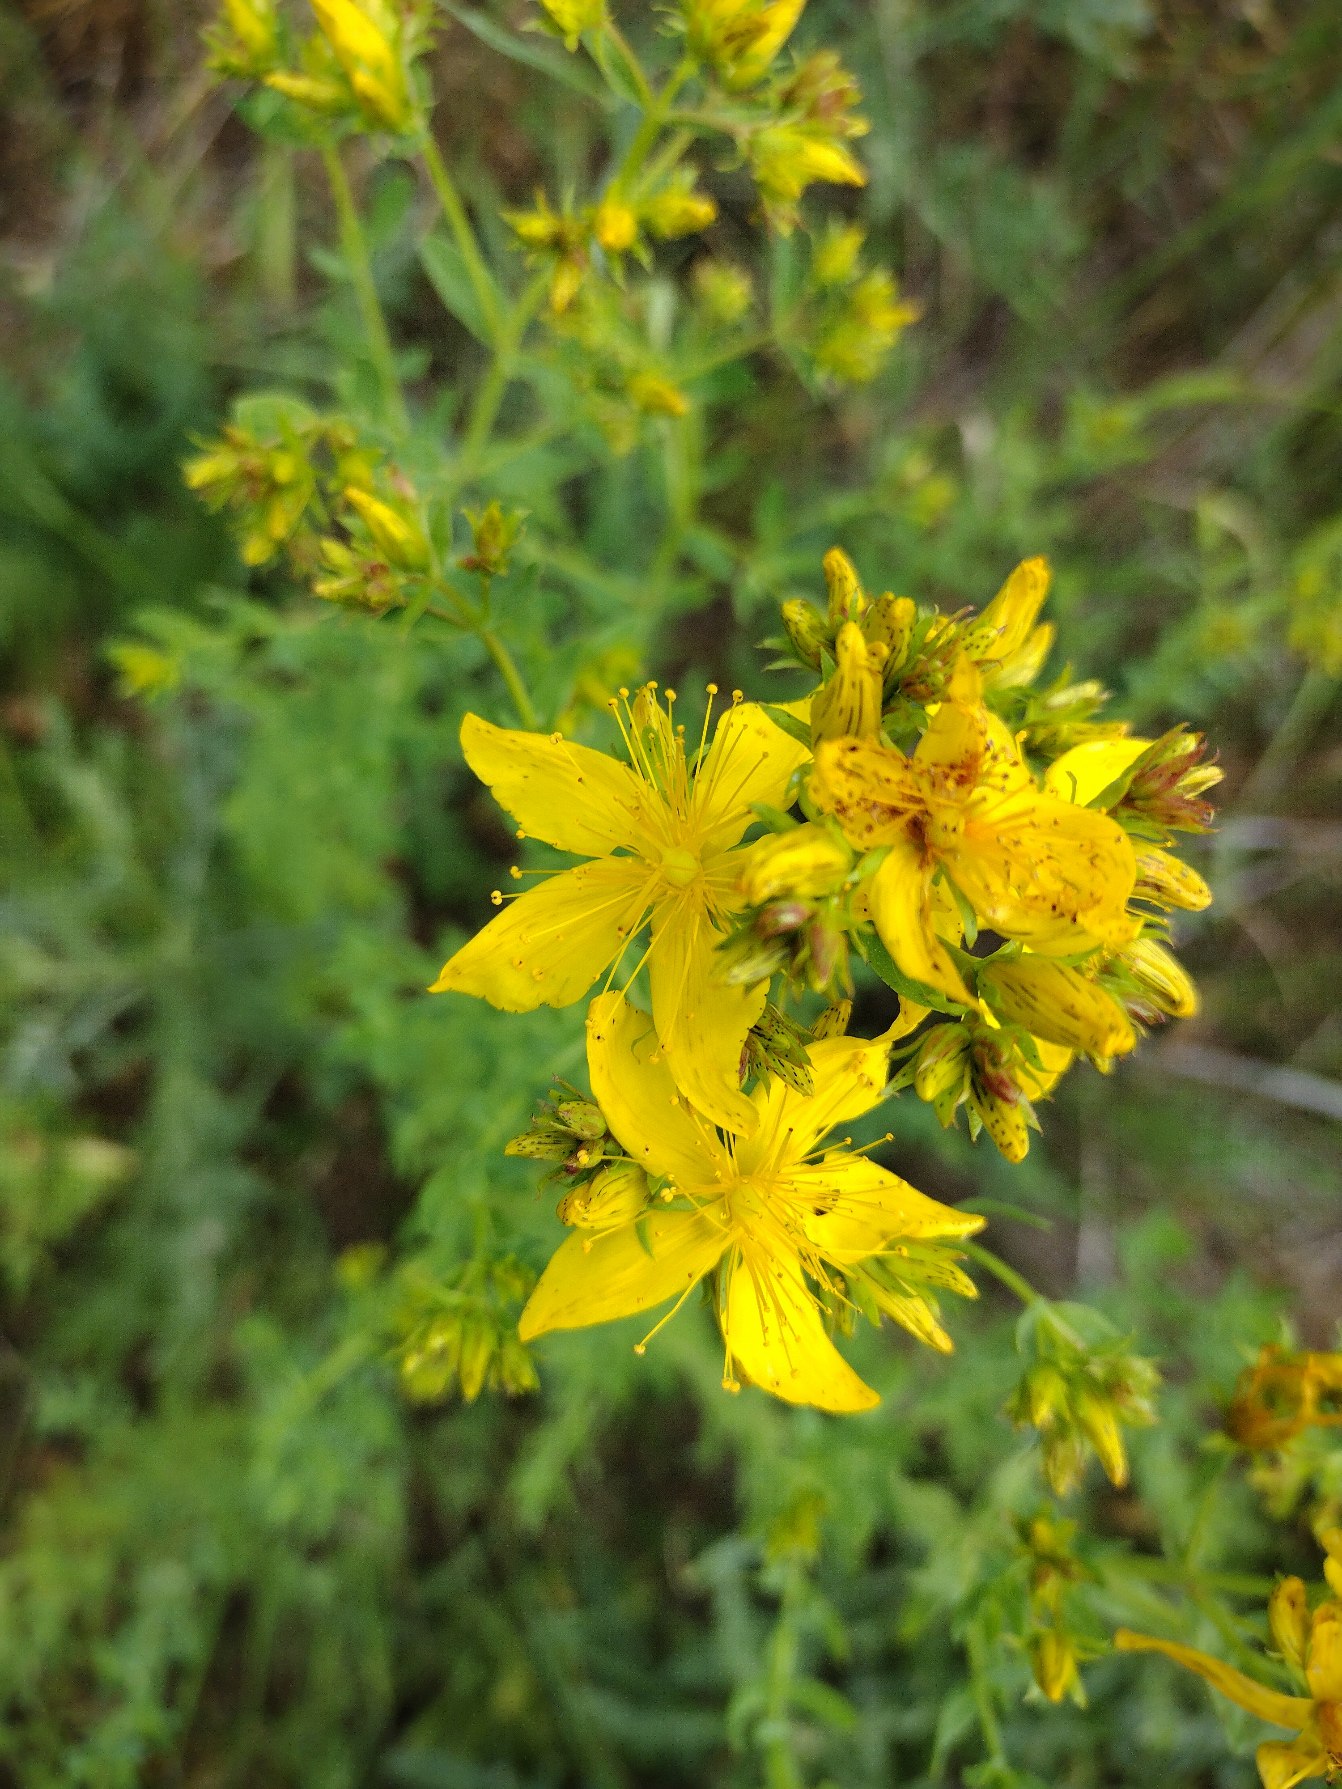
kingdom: Plantae
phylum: Tracheophyta
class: Magnoliopsida
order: Malpighiales
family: Hypericaceae
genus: Hypericum
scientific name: Hypericum perforatum
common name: Prikbladet perikon
